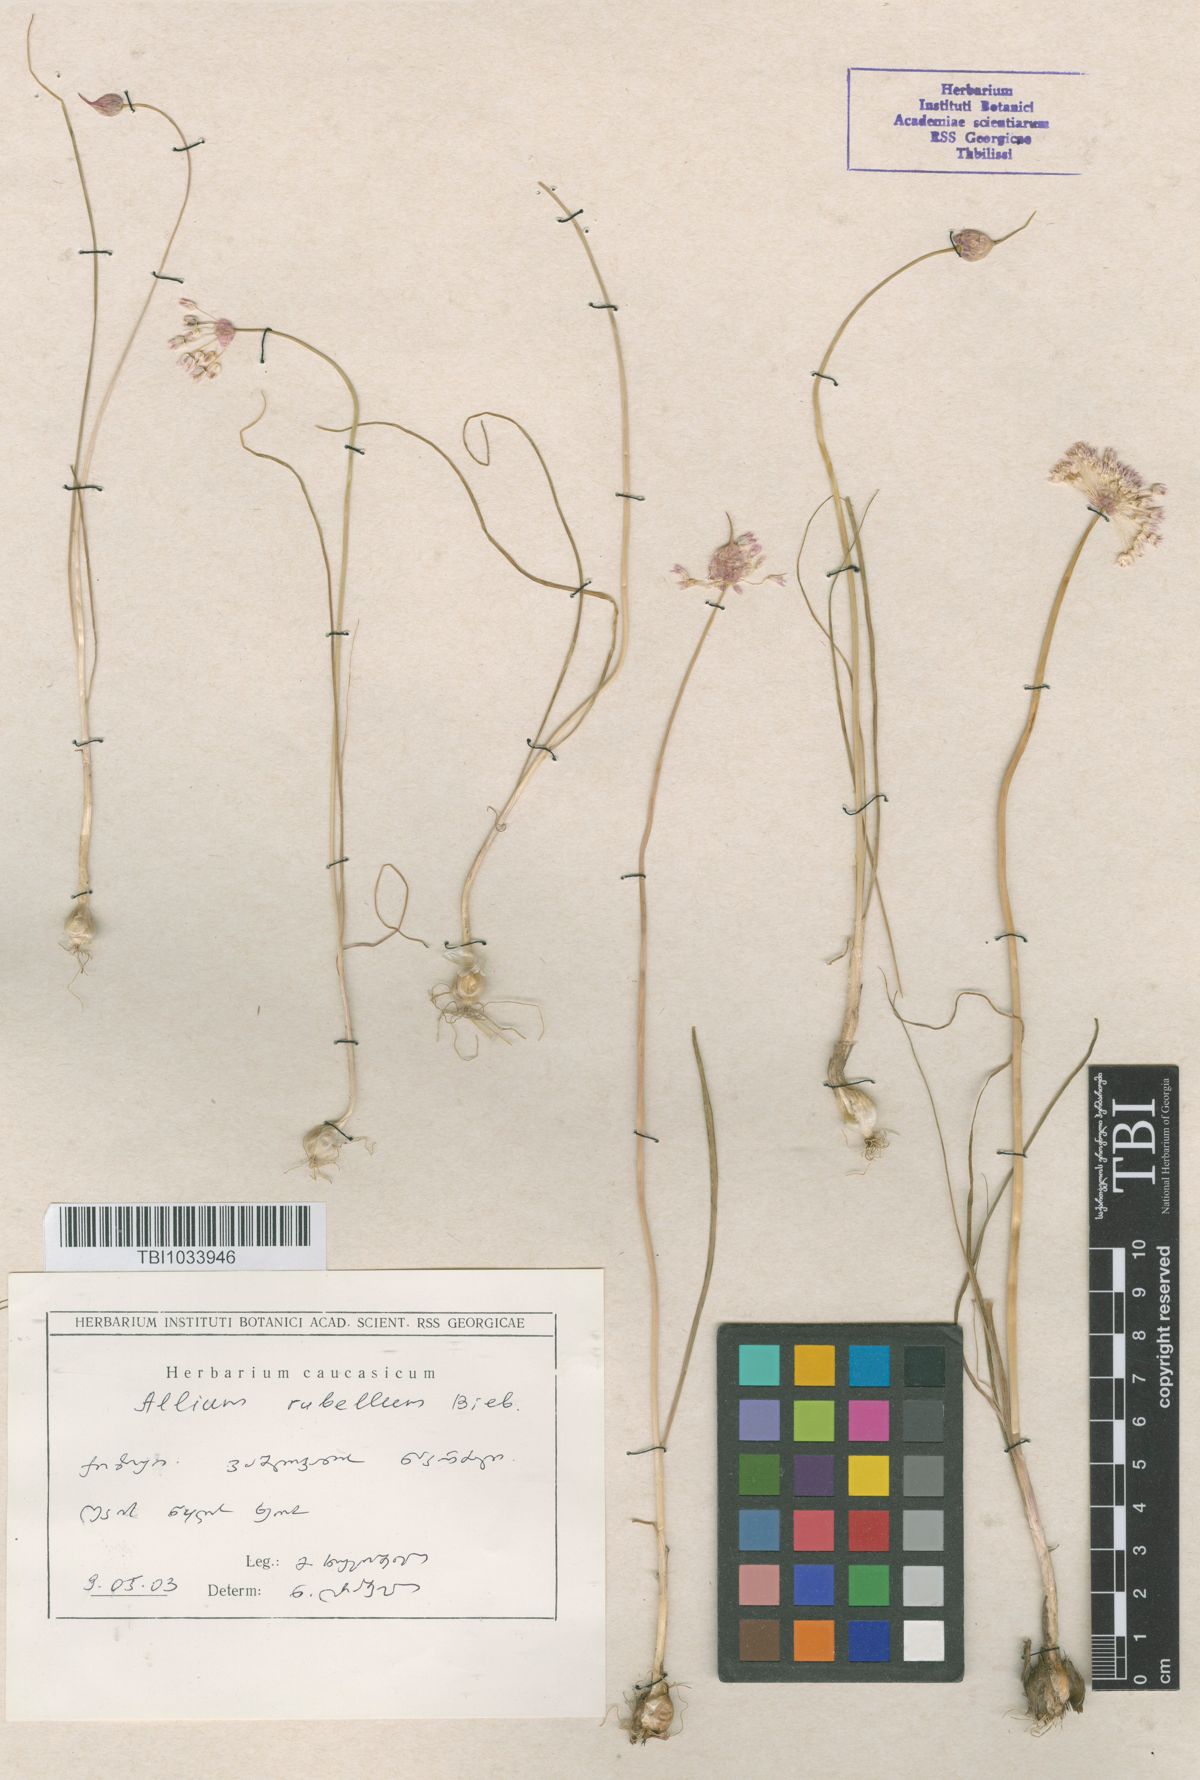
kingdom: Plantae
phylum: Tracheophyta
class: Liliopsida
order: Asparagales
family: Amaryllidaceae
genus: Allium
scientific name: Allium rubellum
